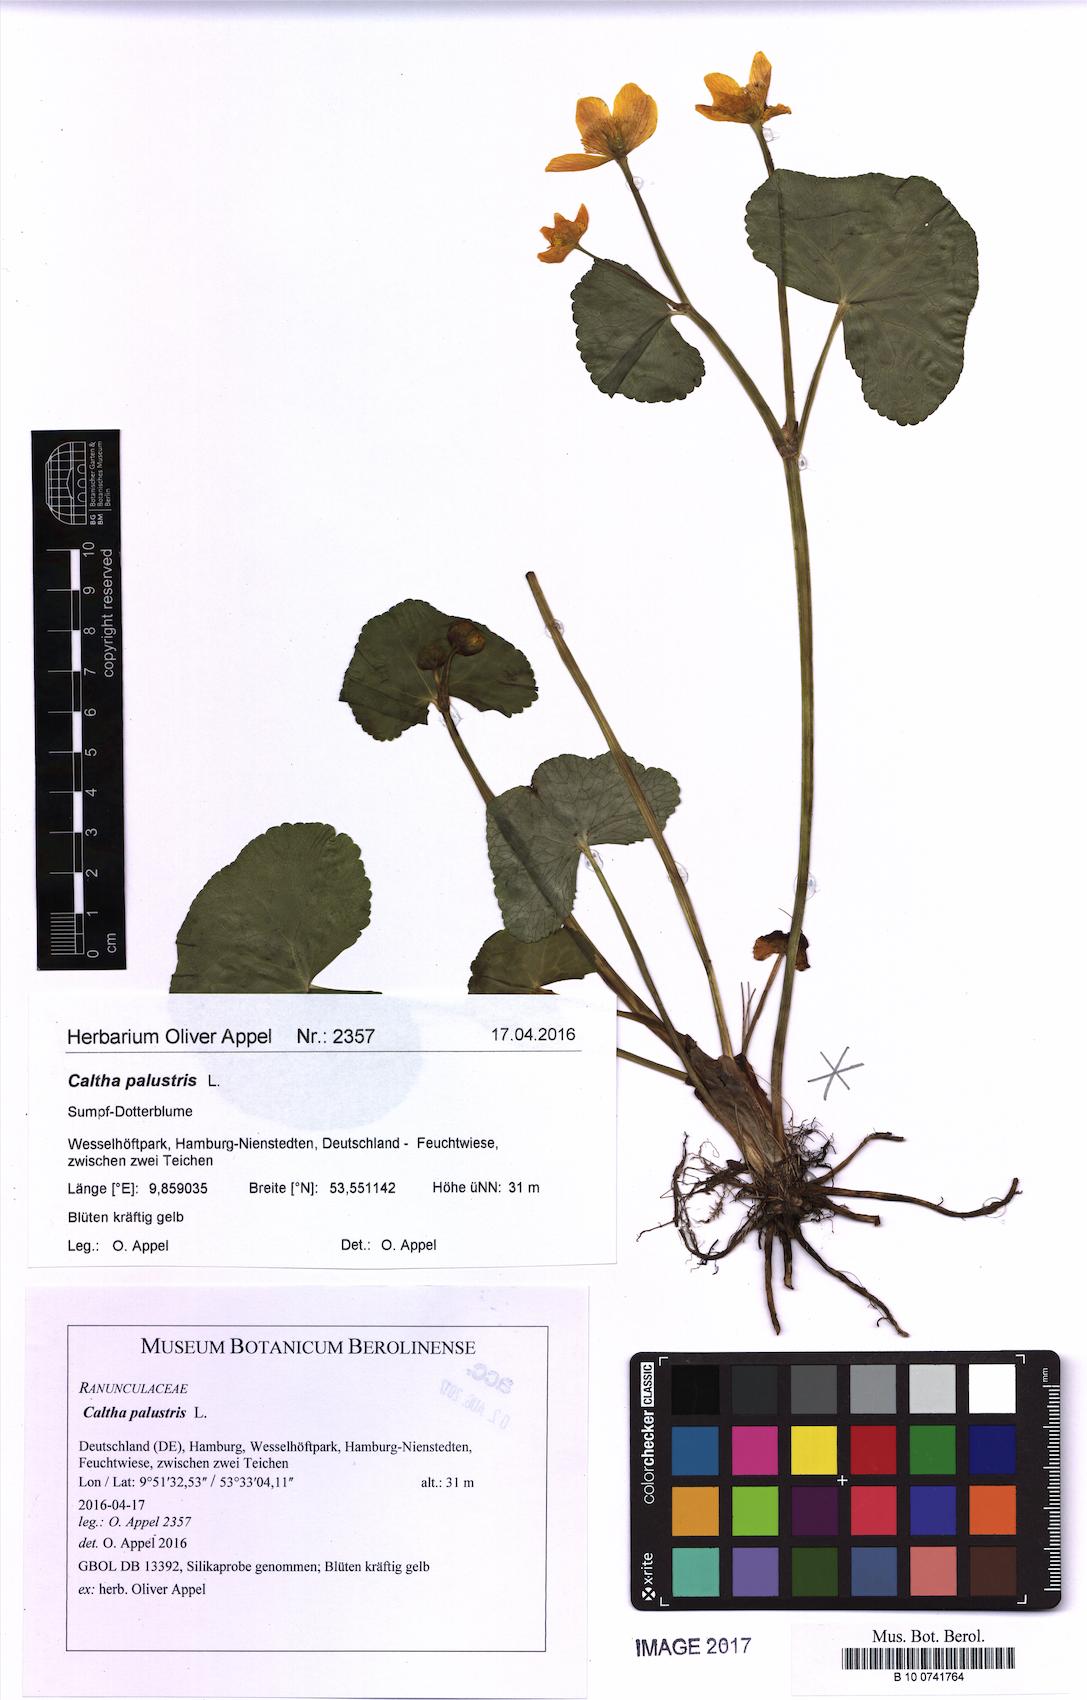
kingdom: Plantae
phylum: Tracheophyta
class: Magnoliopsida
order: Ranunculales
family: Ranunculaceae
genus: Caltha
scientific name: Caltha palustris
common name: Marsh marigold
